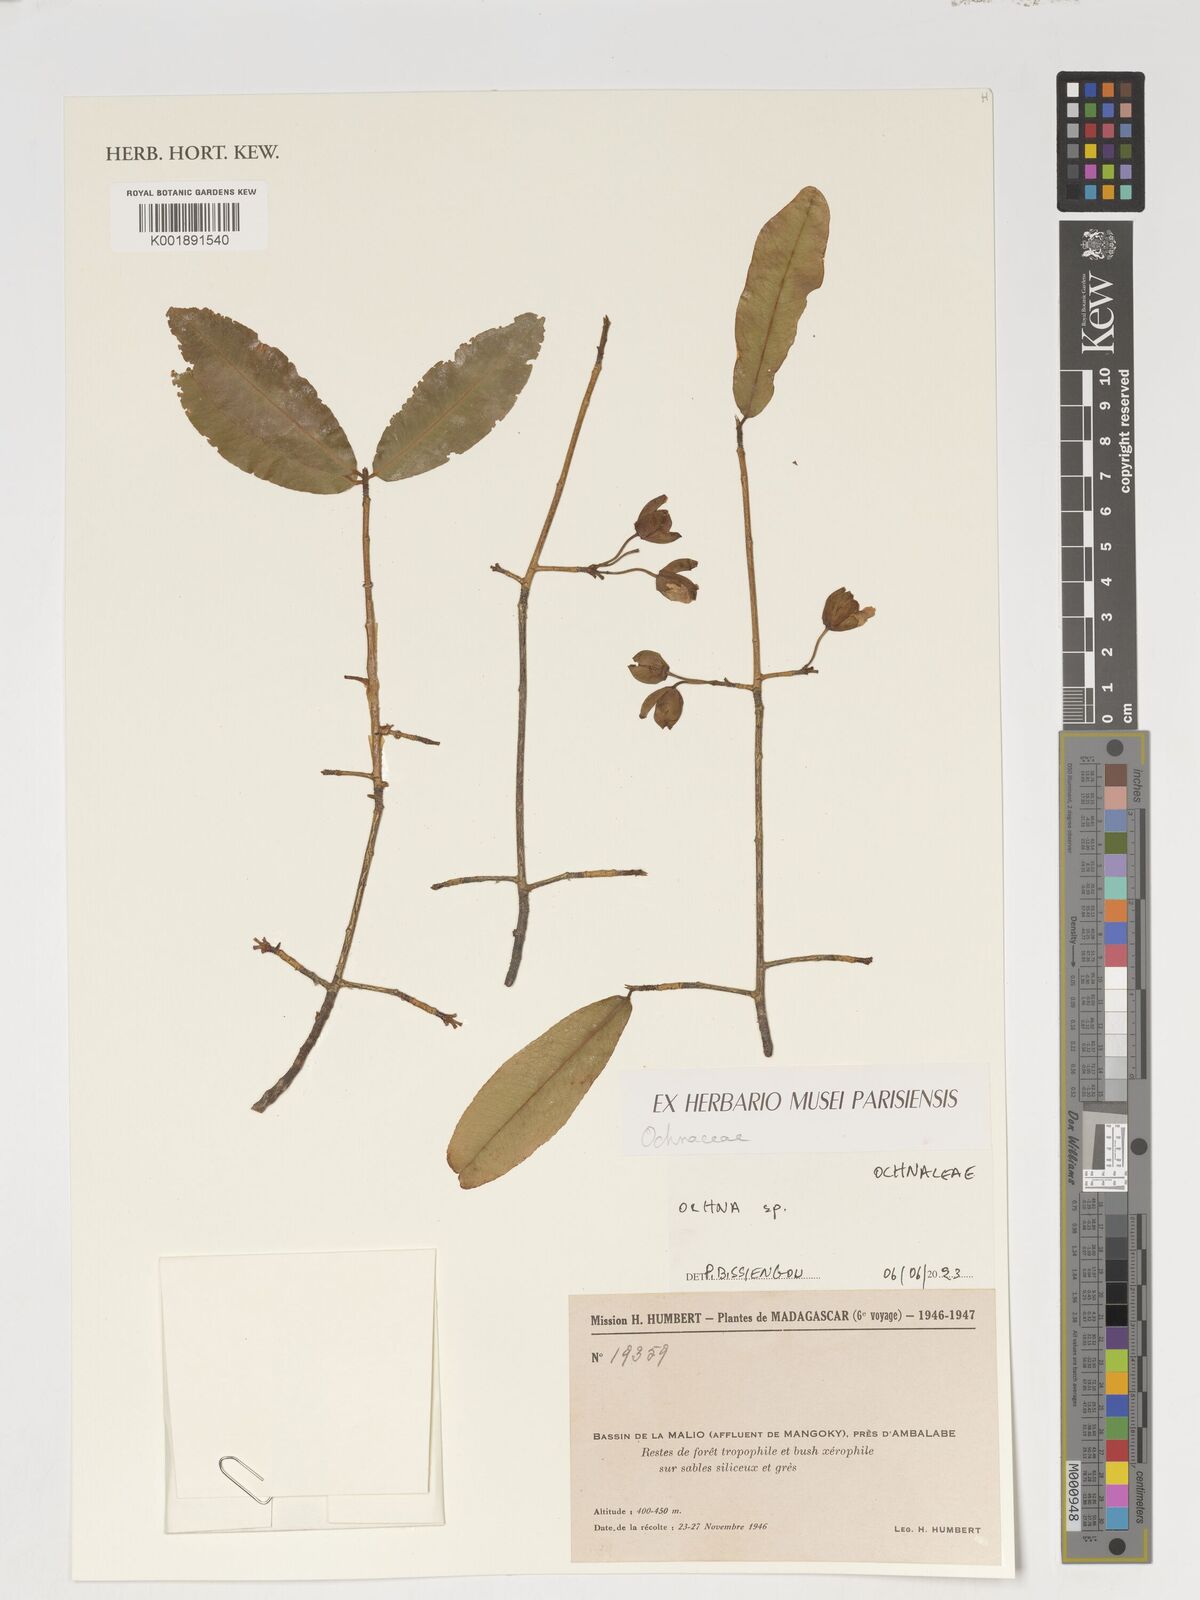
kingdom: Plantae
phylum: Tracheophyta
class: Magnoliopsida
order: Malpighiales
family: Ochnaceae
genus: Ochna
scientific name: Ochna
